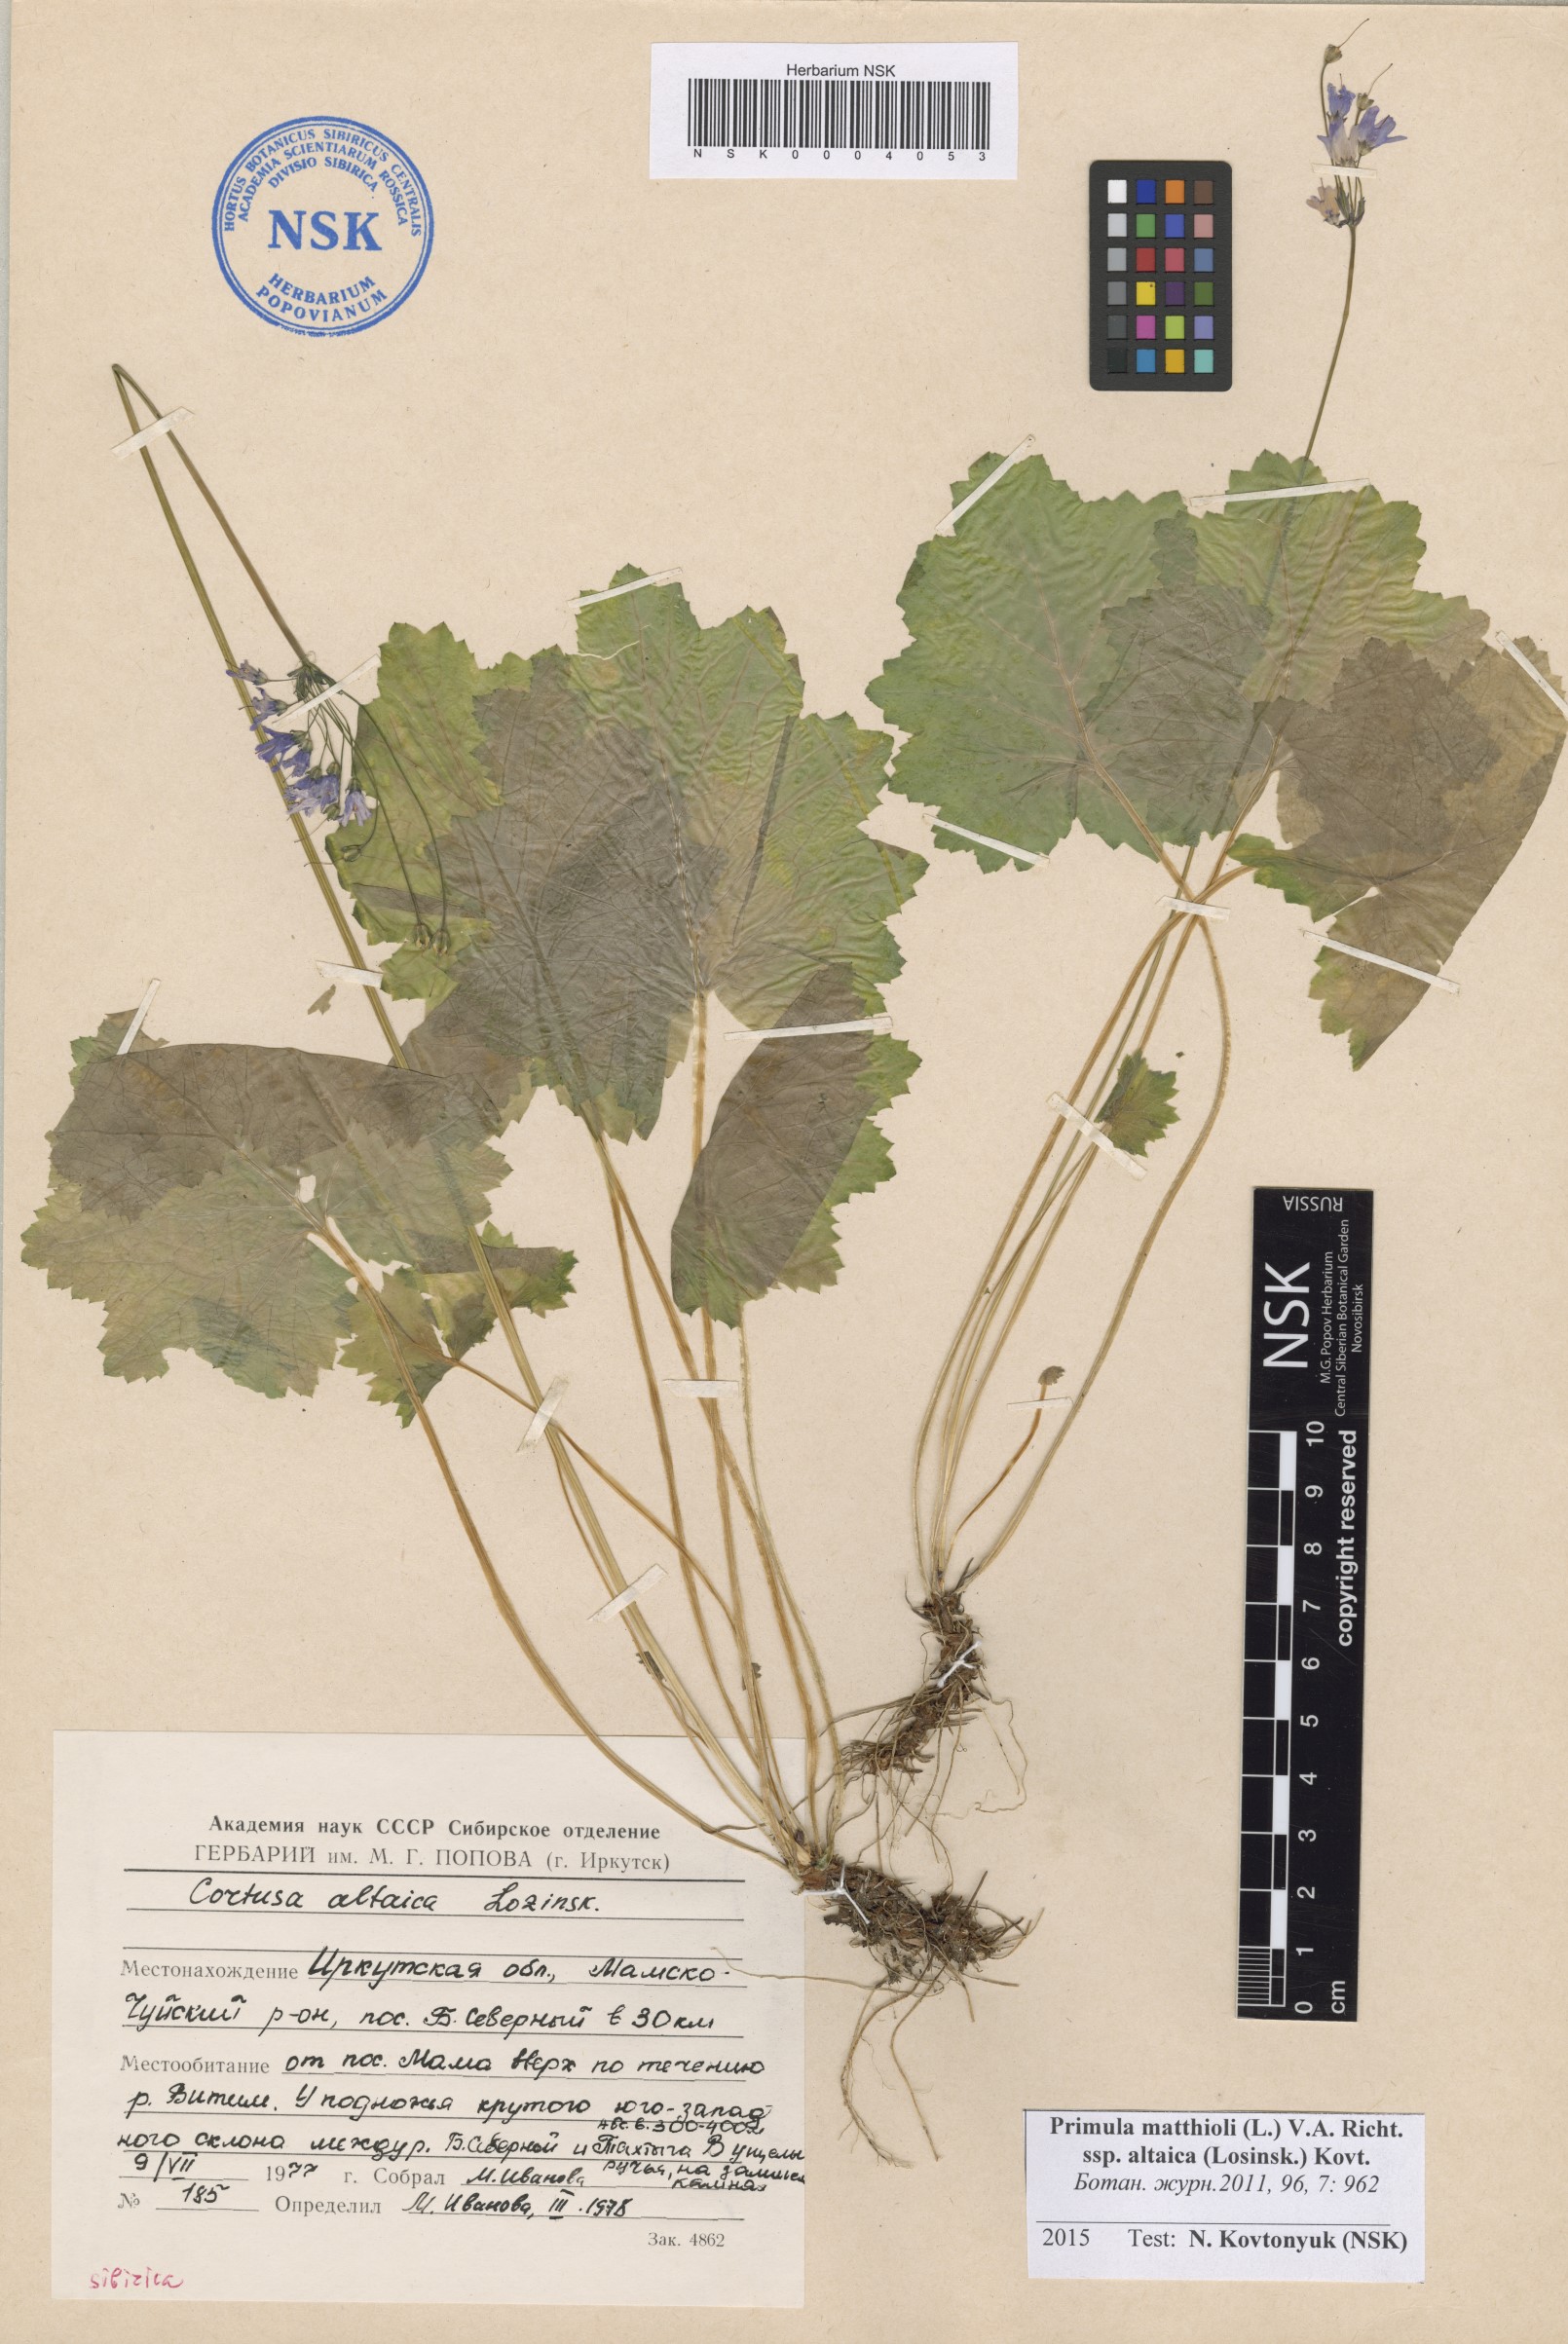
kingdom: Plantae
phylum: Tracheophyta
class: Magnoliopsida
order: Ericales
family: Primulaceae
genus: Primula
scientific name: Primula matthioli
